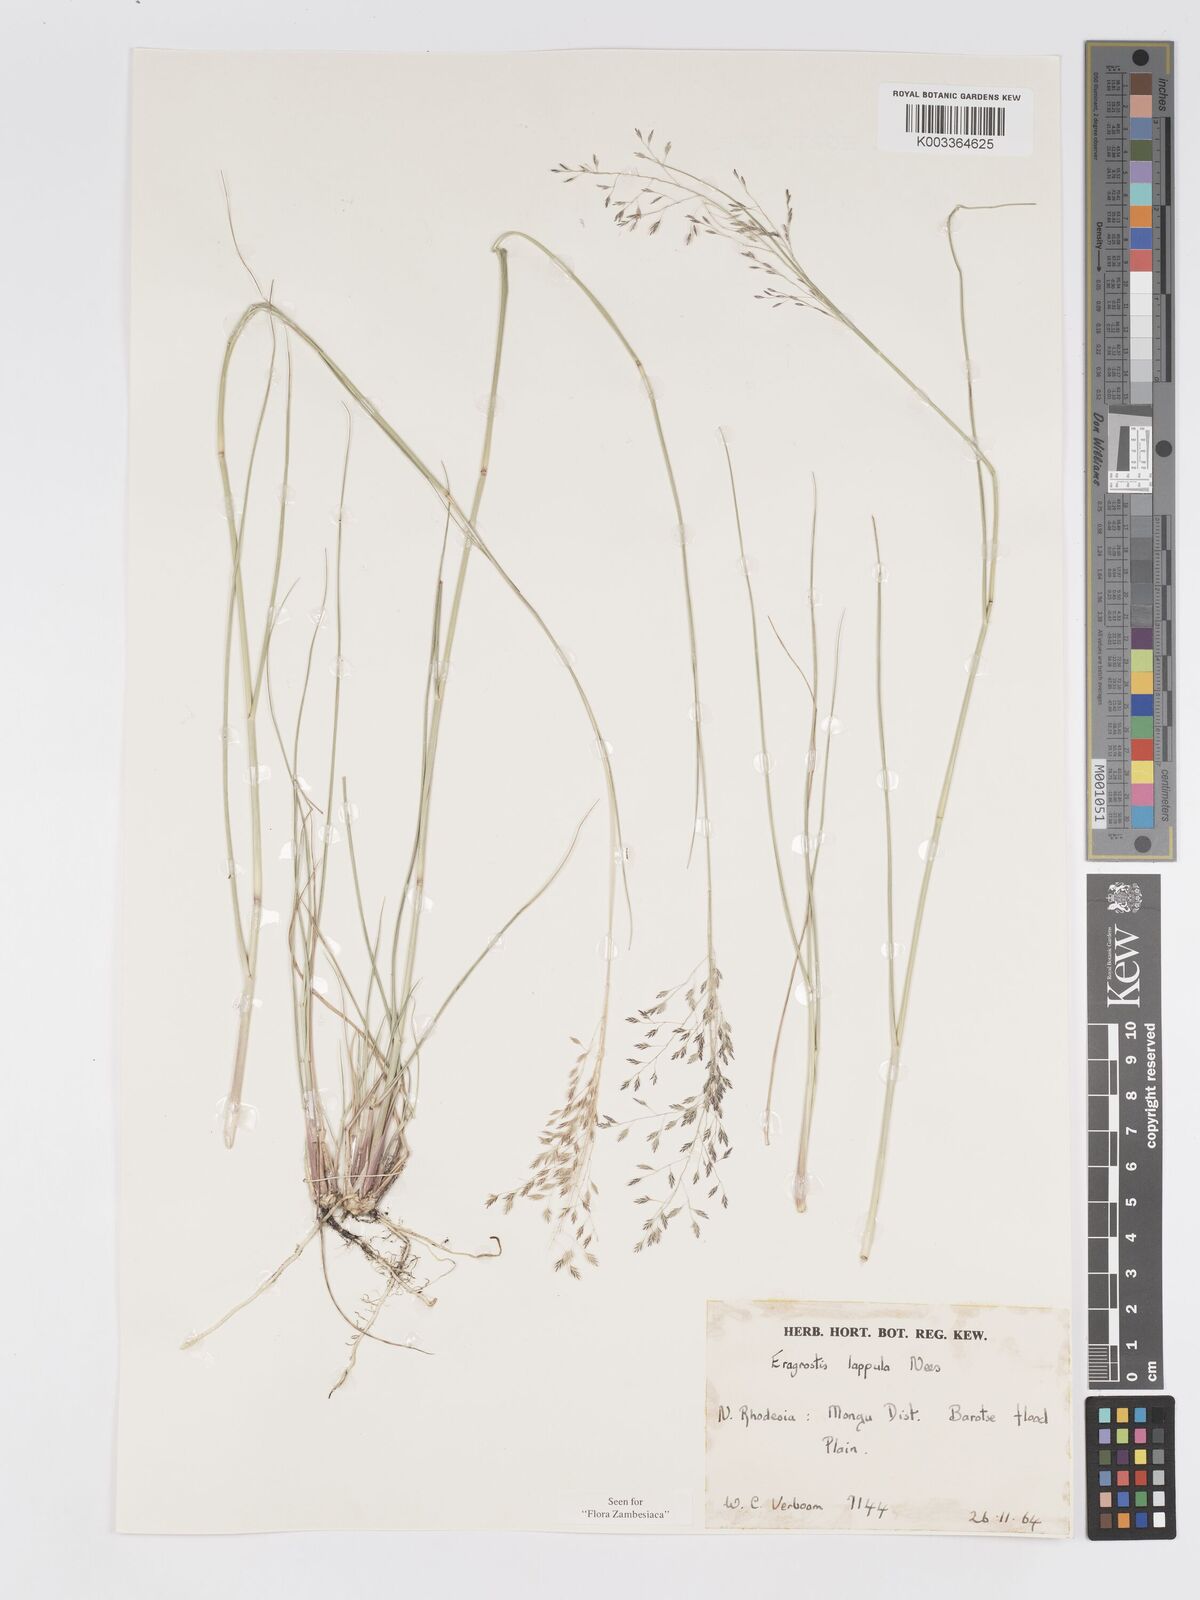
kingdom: Plantae
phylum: Tracheophyta
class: Liliopsida
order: Poales
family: Poaceae
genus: Eragrostis
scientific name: Eragrostis lappula
